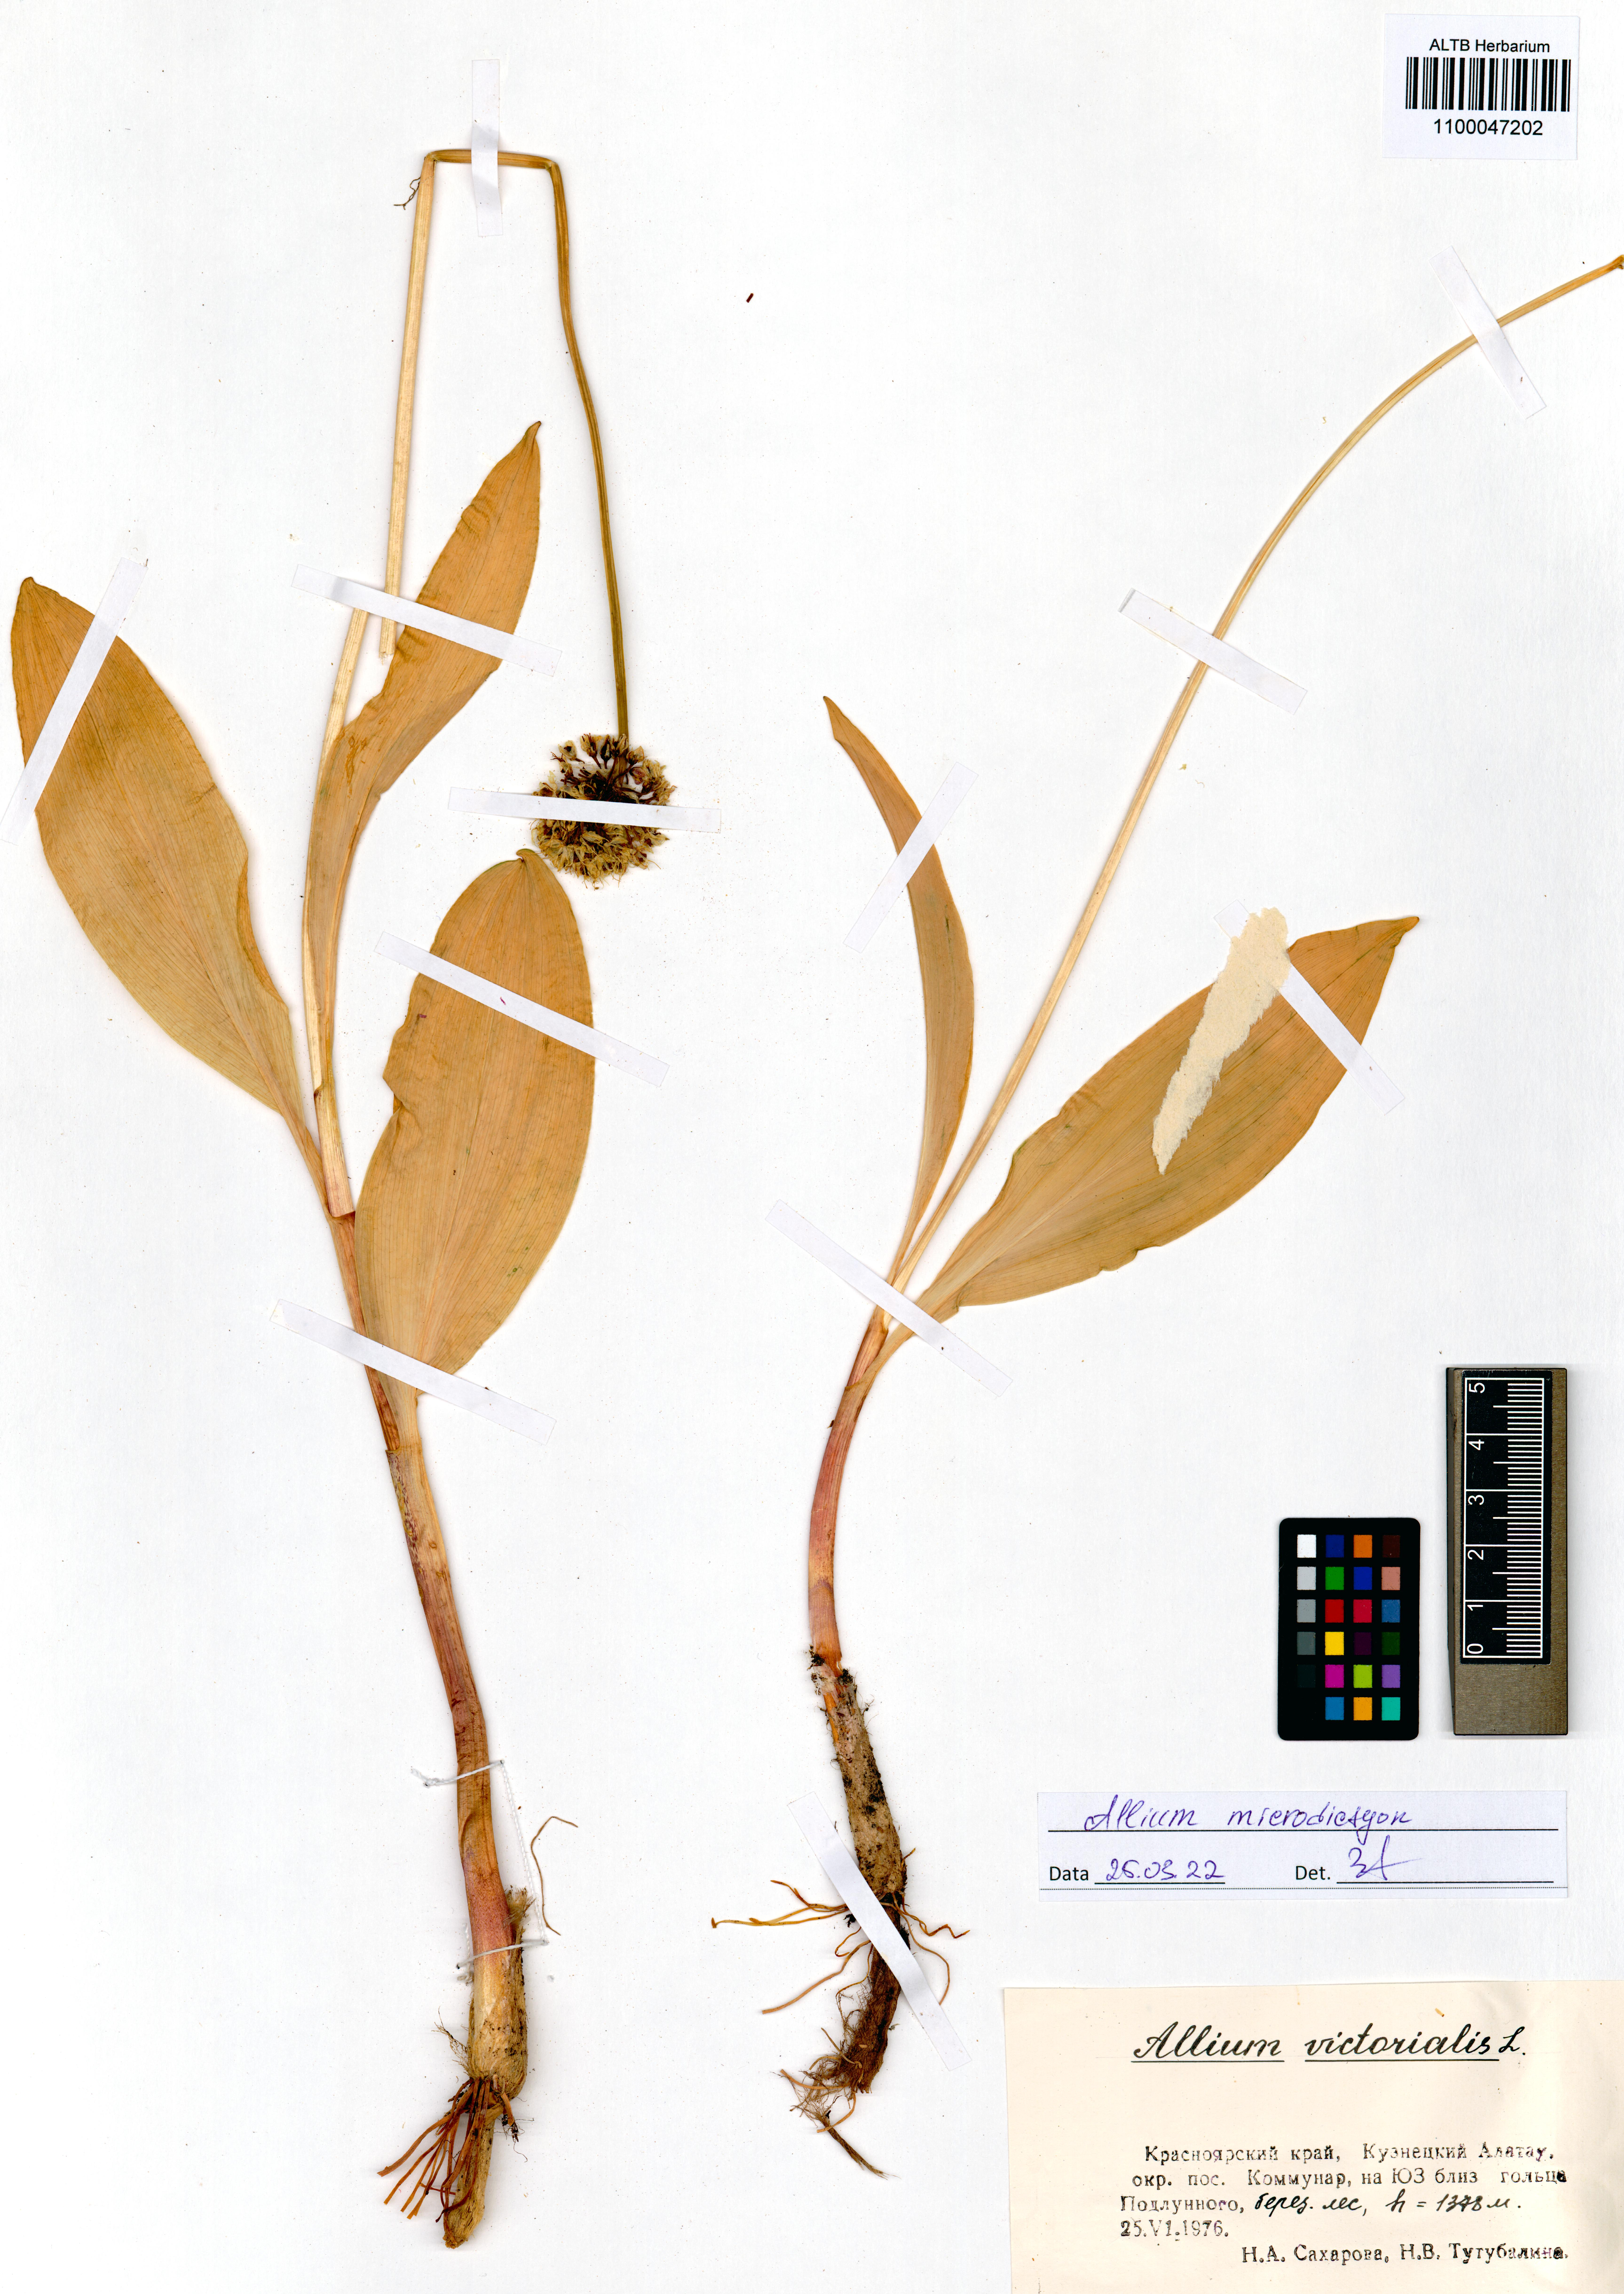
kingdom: Plantae
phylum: Tracheophyta
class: Liliopsida
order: Asparagales
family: Amaryllidaceae
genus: Allium
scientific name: Allium microdictyon
